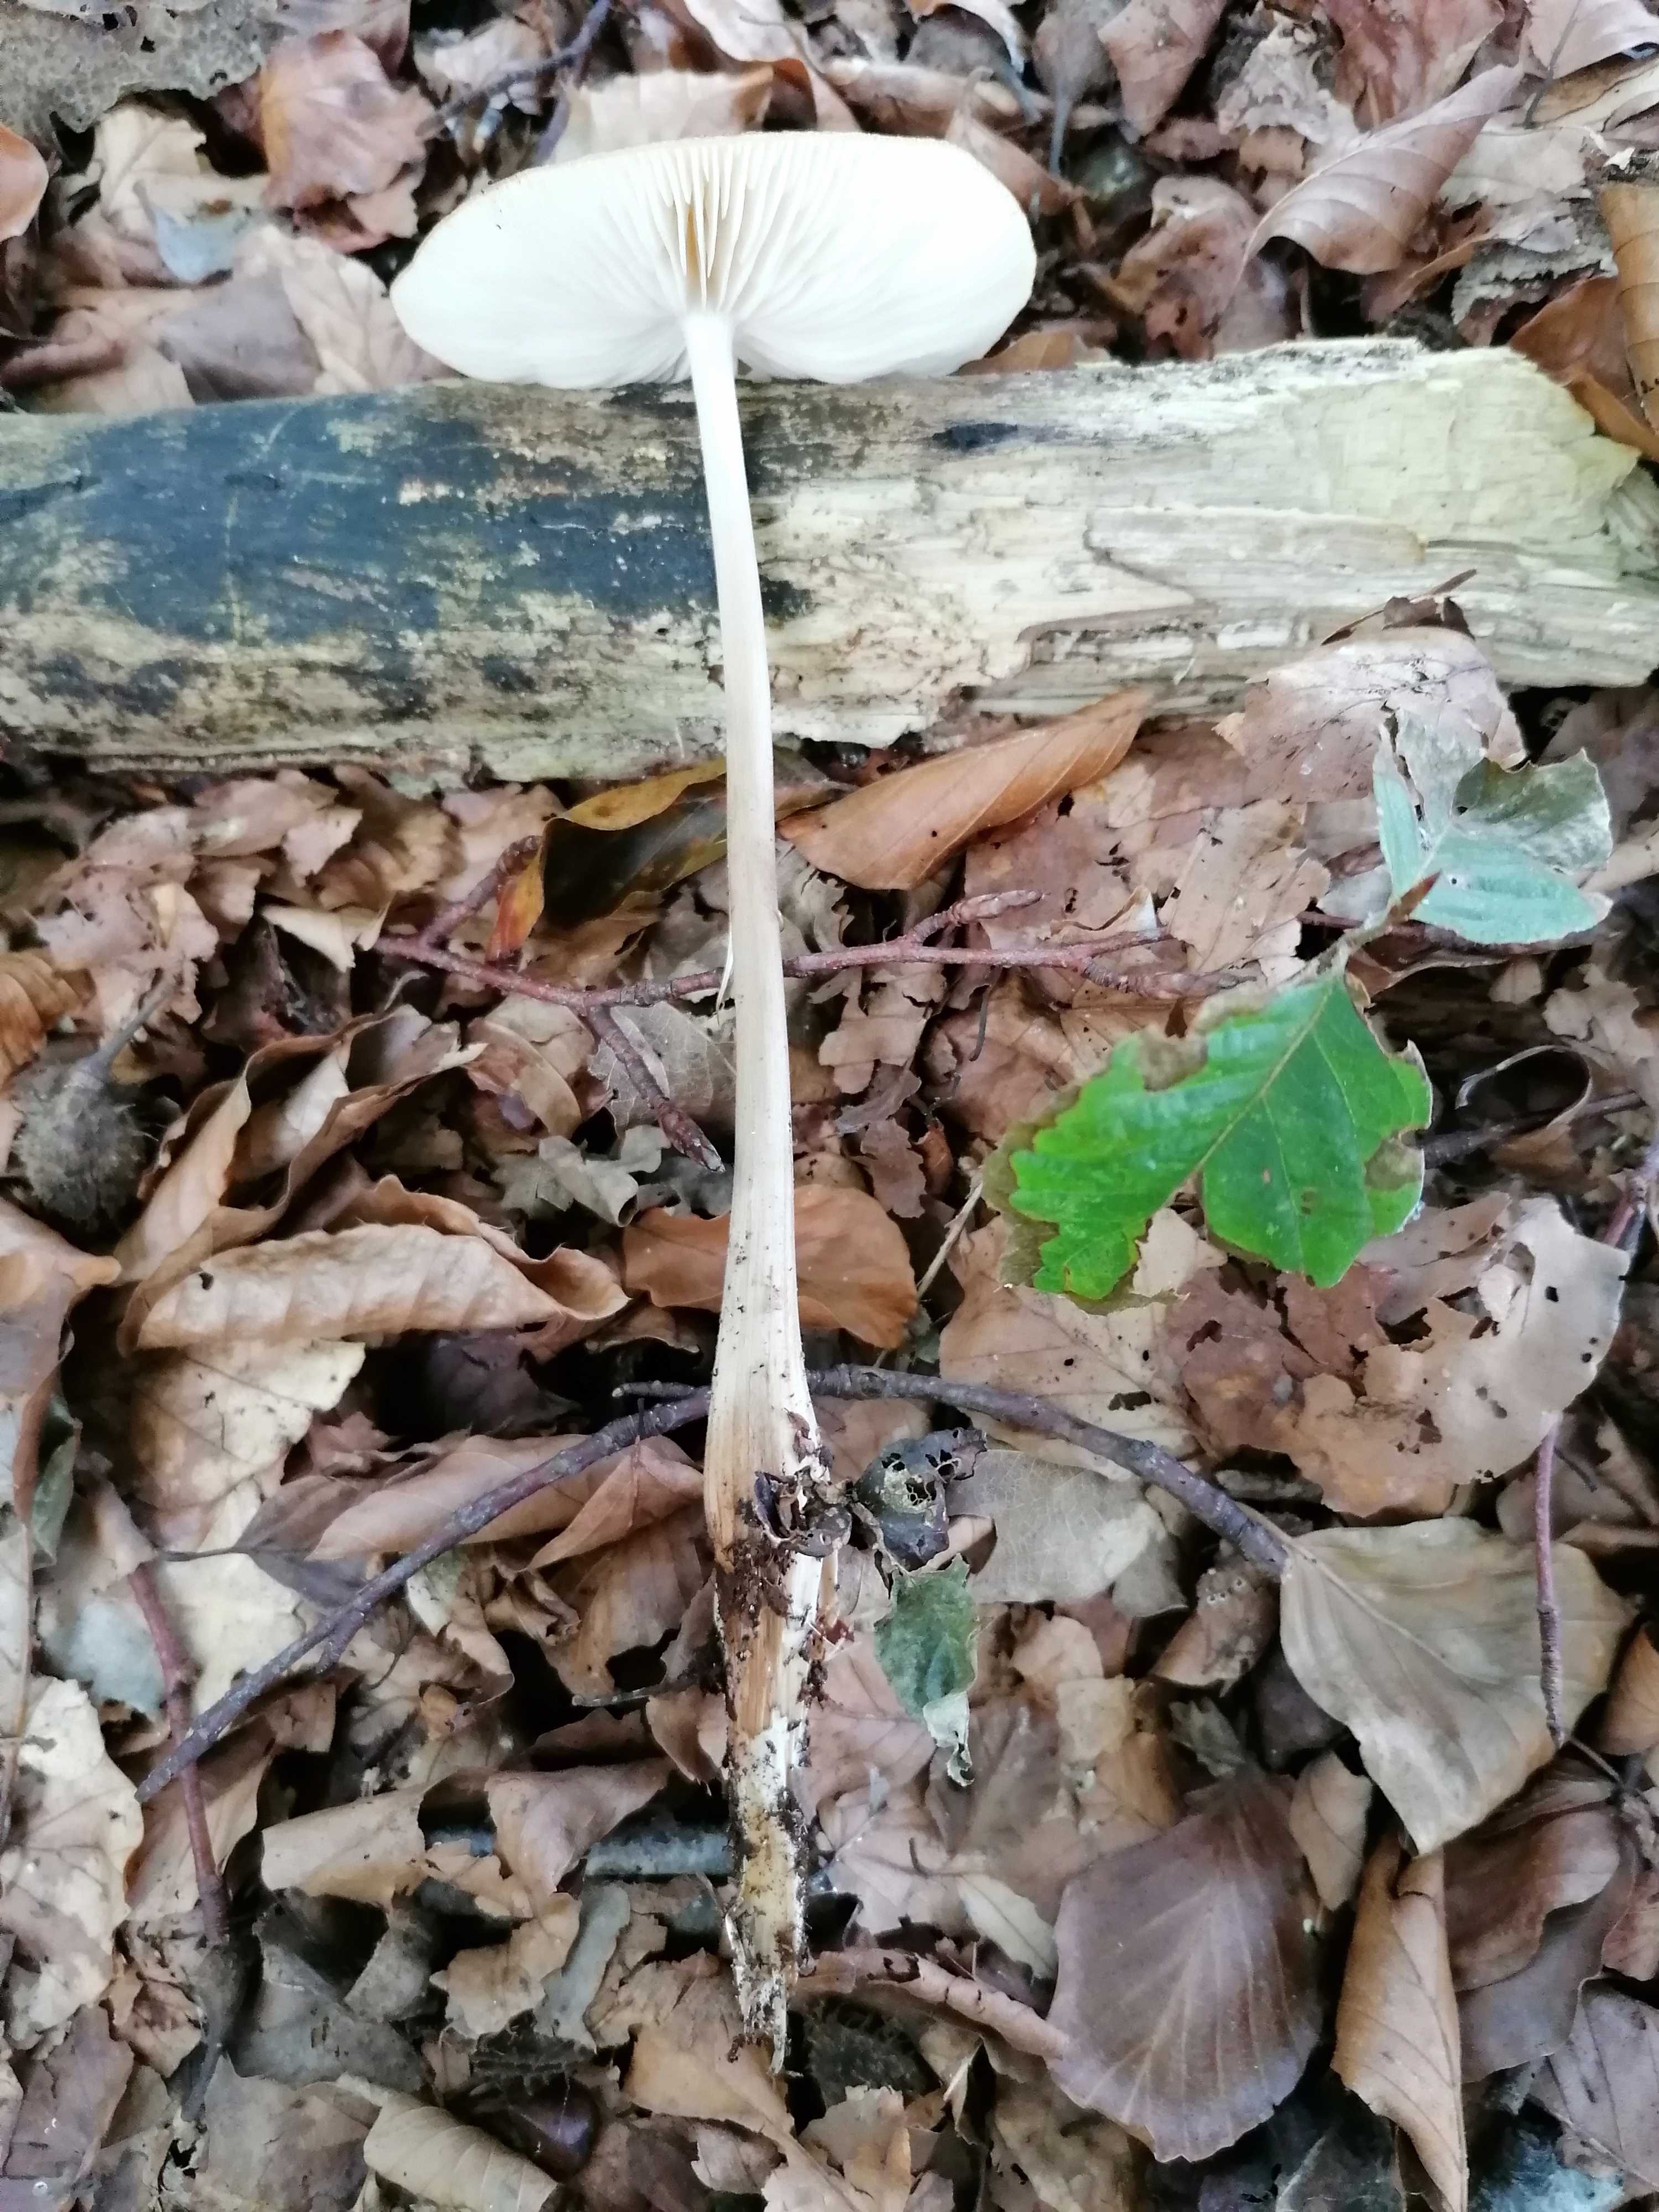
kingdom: Fungi
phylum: Basidiomycota
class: Agaricomycetes
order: Agaricales
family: Physalacriaceae
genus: Hymenopellis
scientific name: Hymenopellis radicata
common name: almindelig pælerodshat
